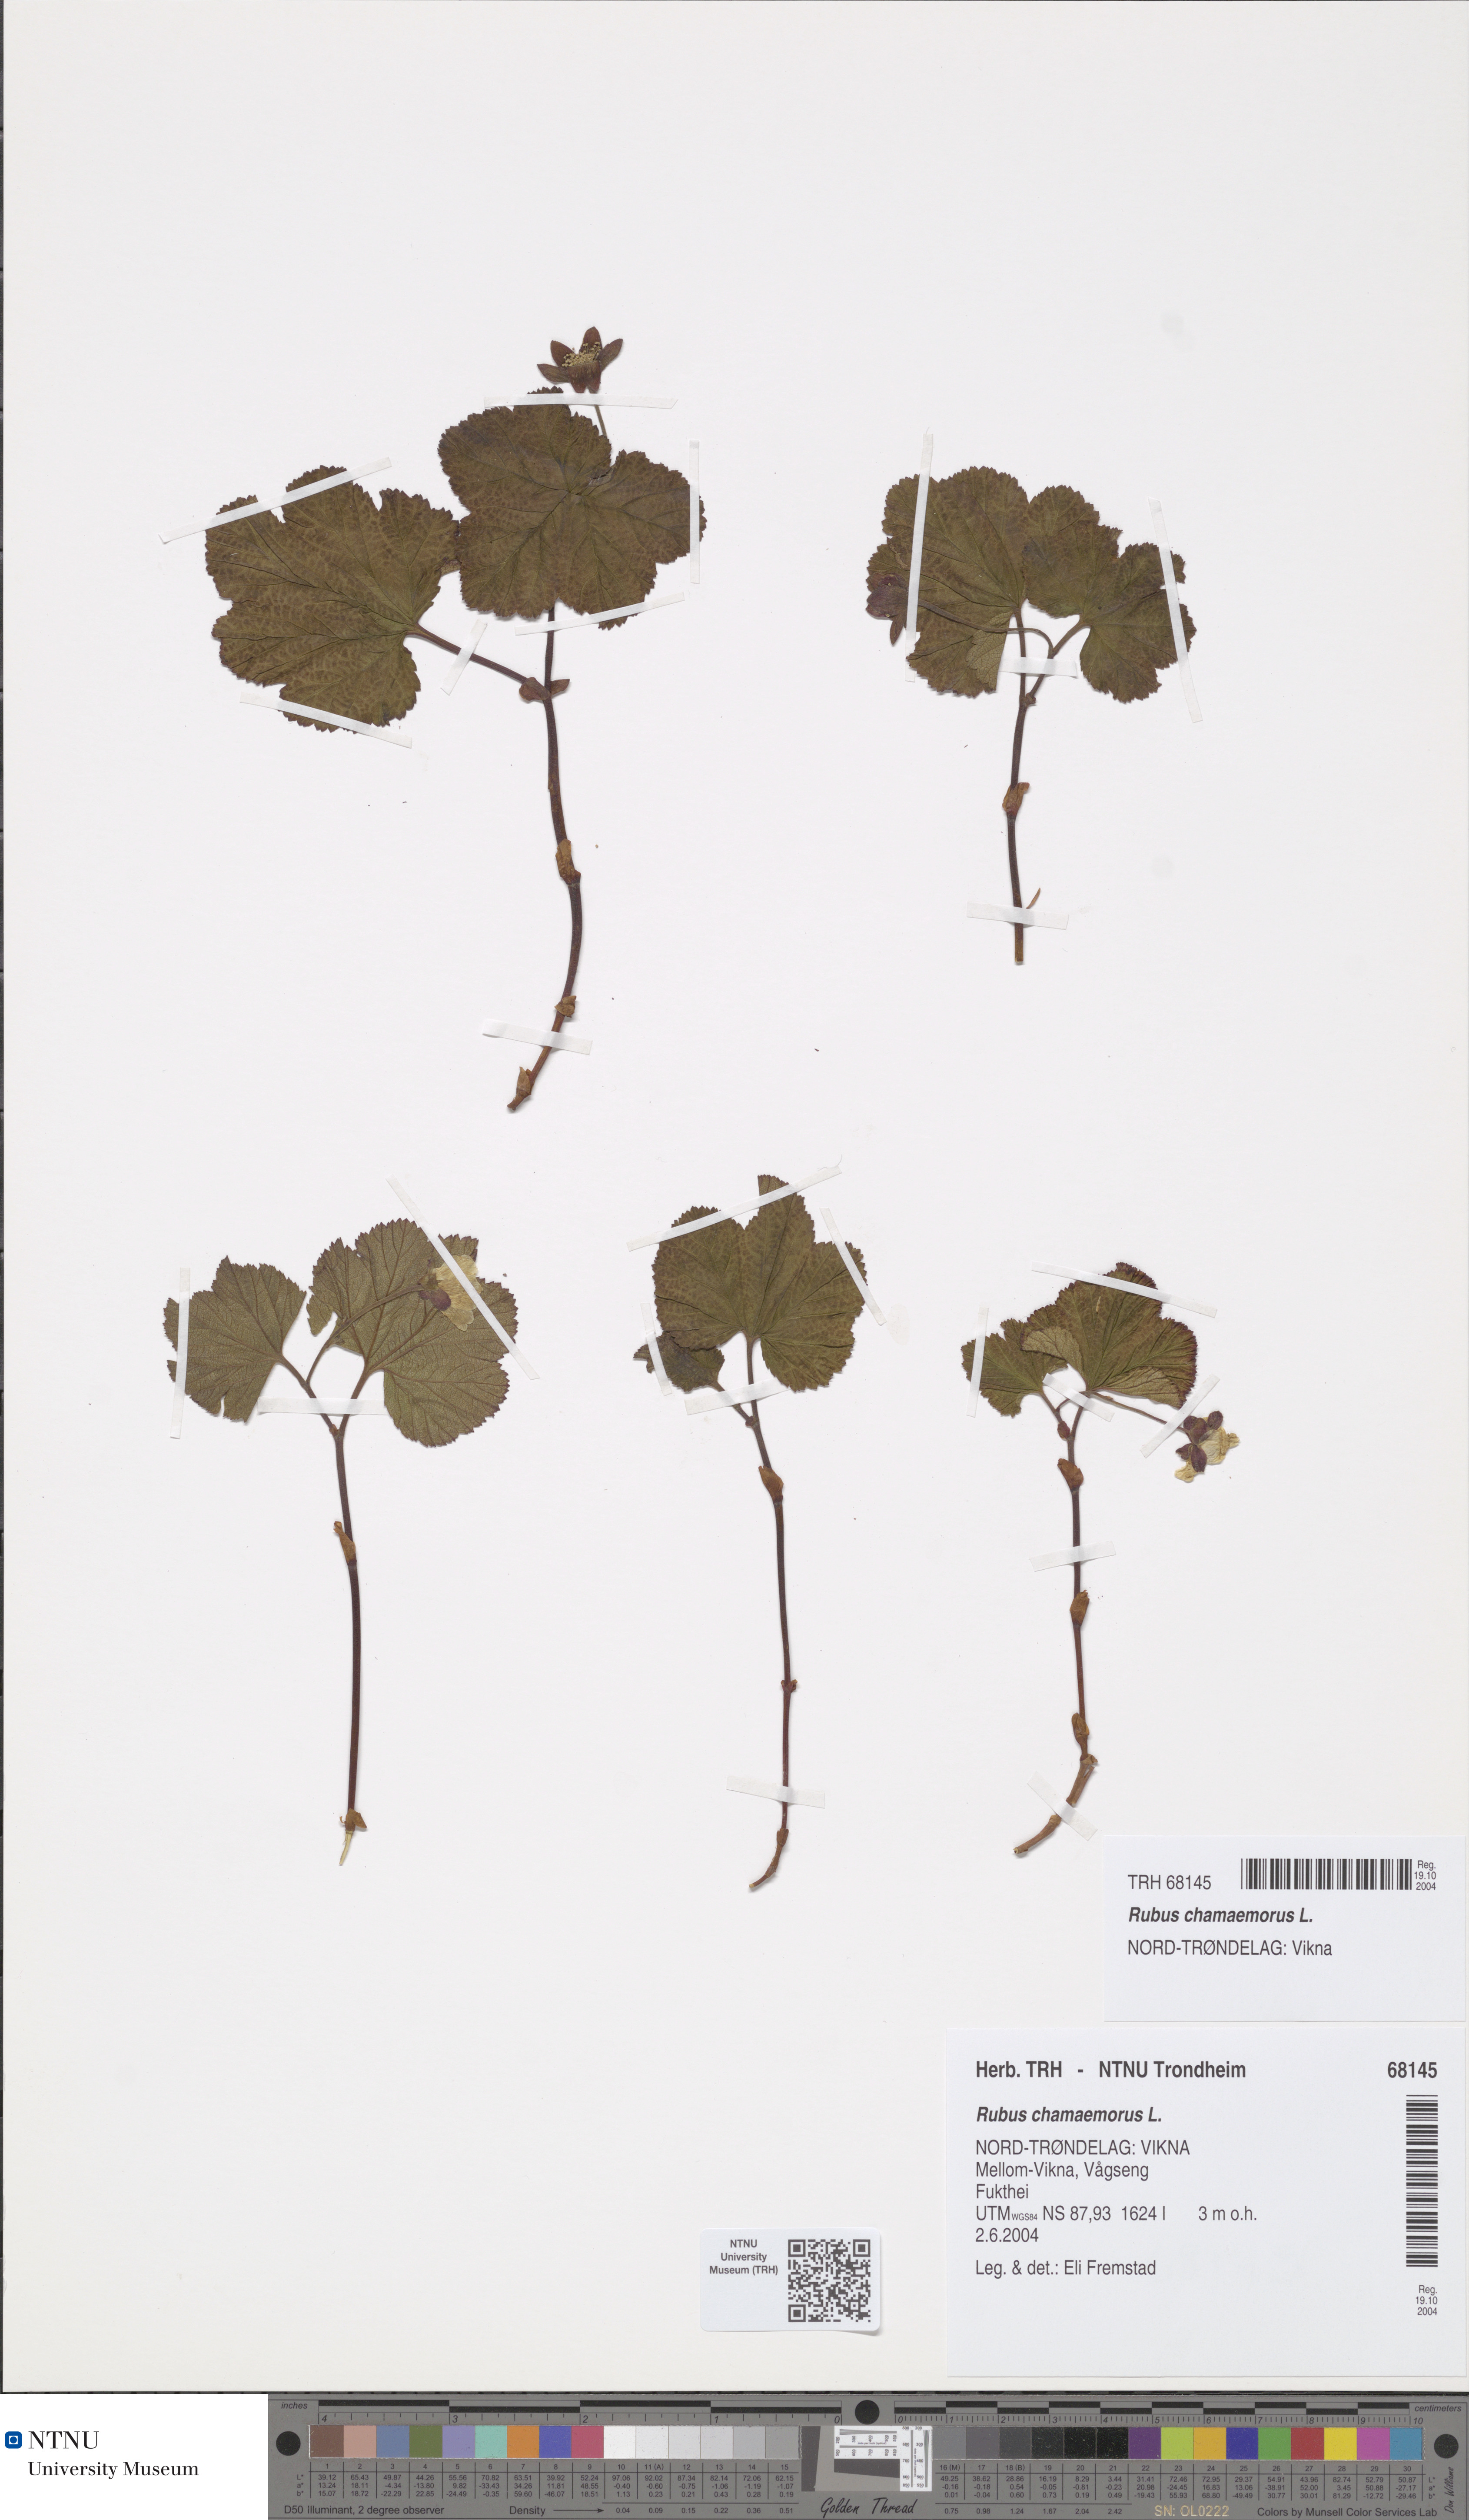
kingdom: Plantae
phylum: Tracheophyta
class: Magnoliopsida
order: Rosales
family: Rosaceae
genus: Rubus
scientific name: Rubus chamaemorus
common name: Cloudberry
